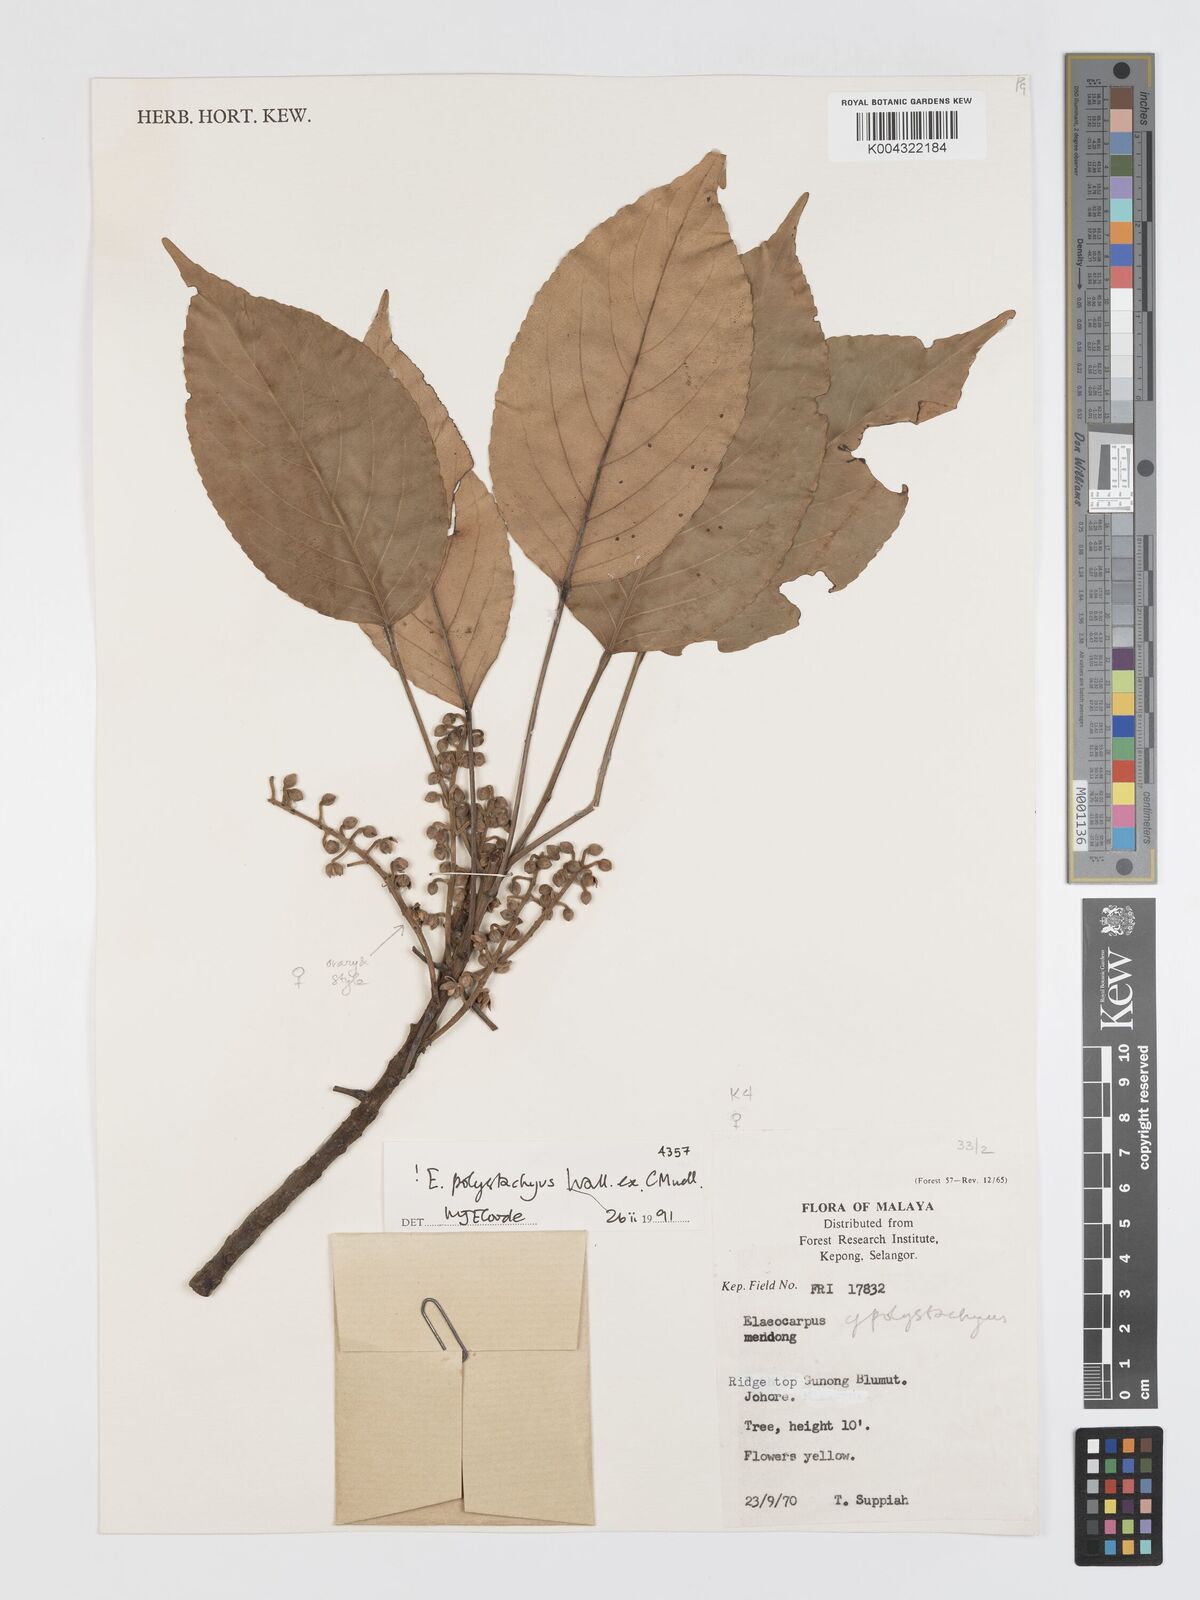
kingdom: Plantae
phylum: Tracheophyta
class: Magnoliopsida
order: Oxalidales
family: Elaeocarpaceae
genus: Elaeocarpus
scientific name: Elaeocarpus polystachyus
